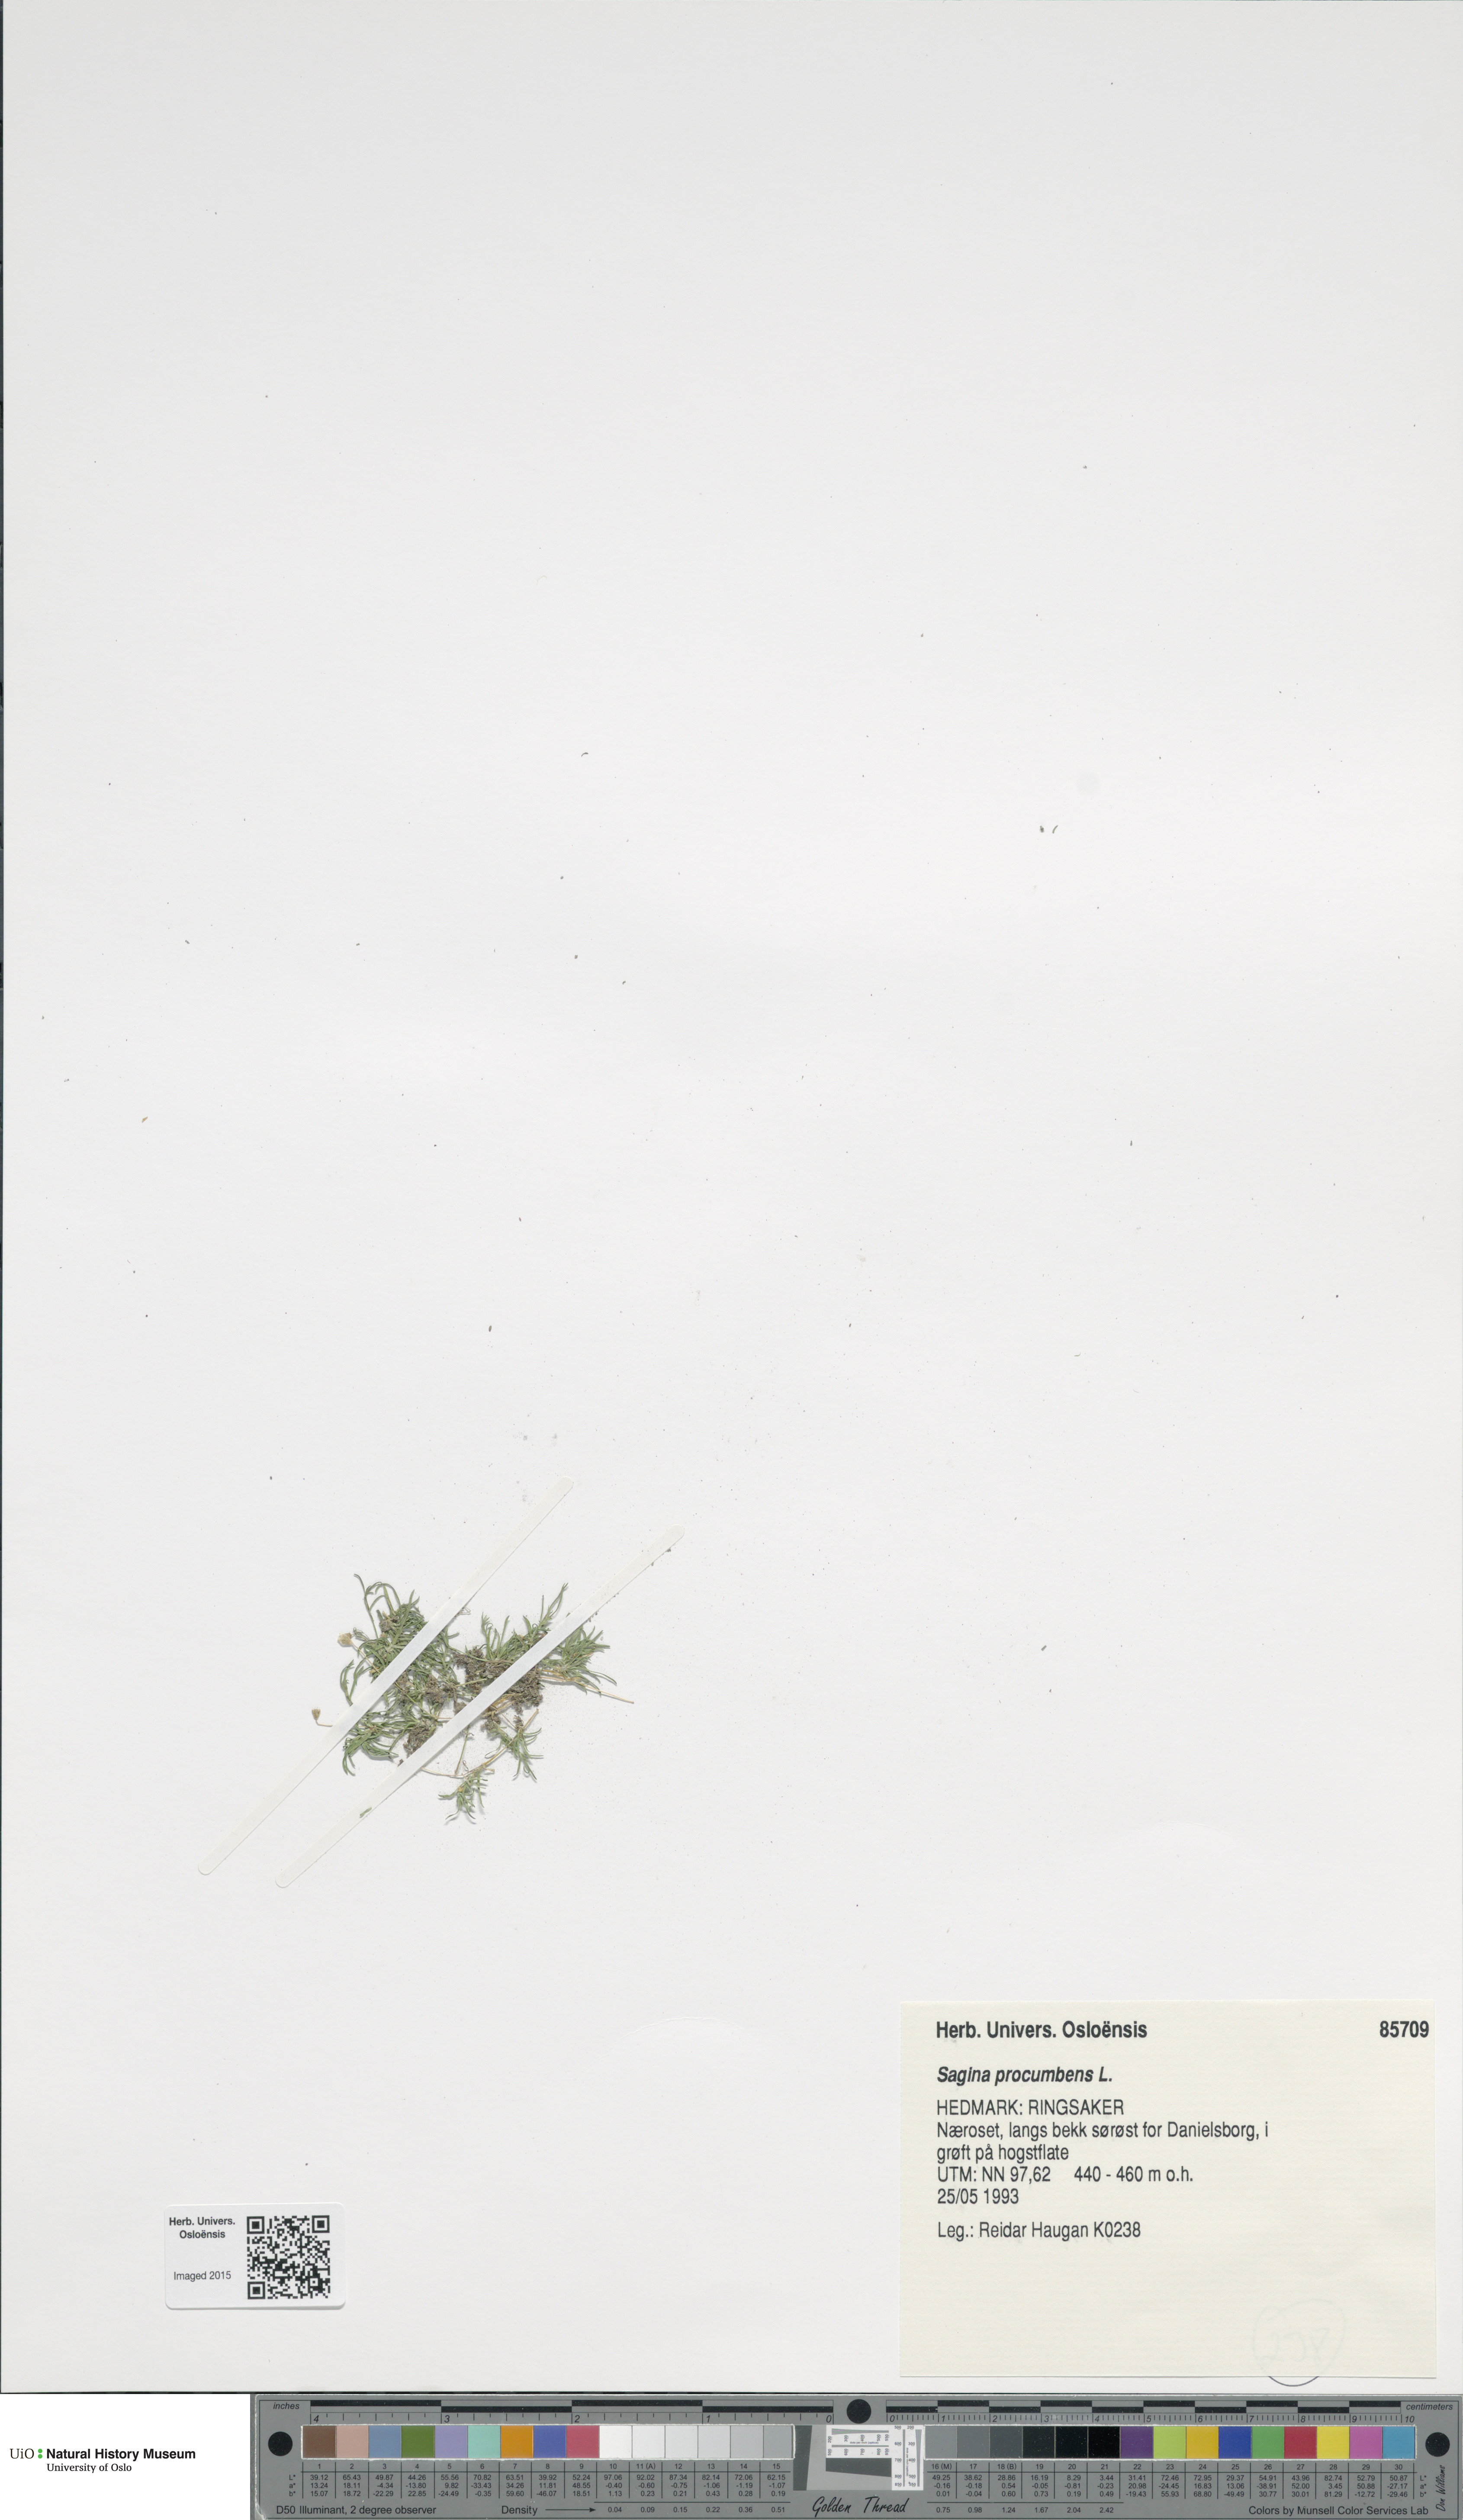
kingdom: Plantae
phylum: Tracheophyta
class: Magnoliopsida
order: Caryophyllales
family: Caryophyllaceae
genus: Sagina
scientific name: Sagina procumbens
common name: Procumbent pearlwort
